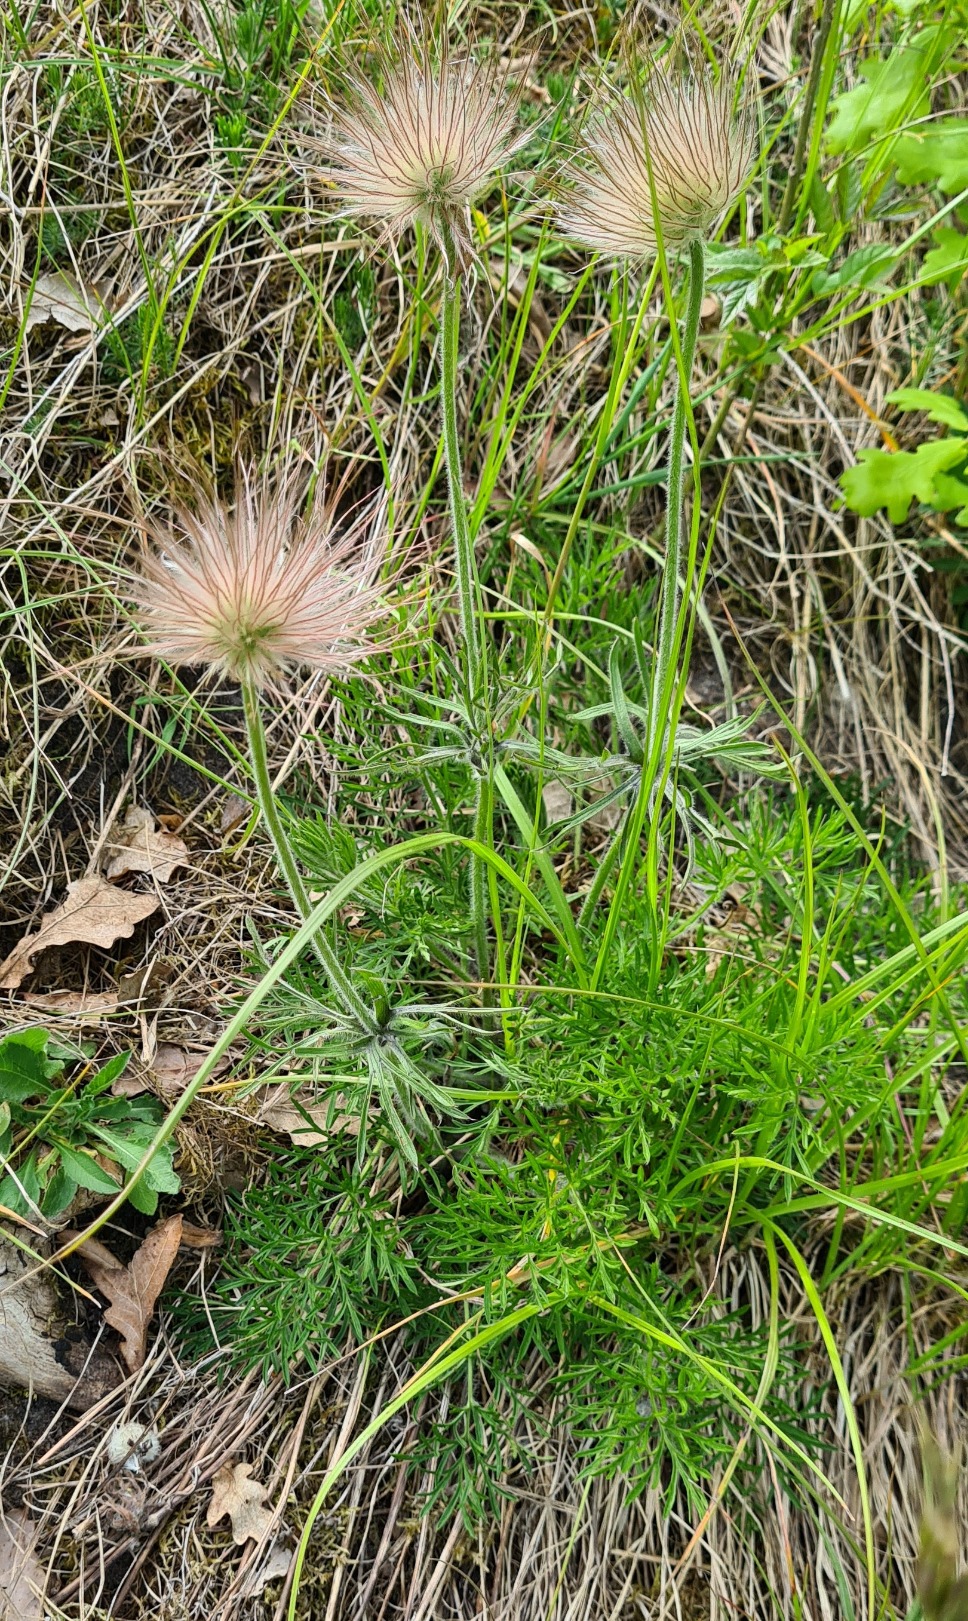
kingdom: Plantae
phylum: Tracheophyta
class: Magnoliopsida
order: Ranunculales
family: Ranunculaceae
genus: Pulsatilla
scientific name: Pulsatilla pratensis
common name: Nikkende kobjælde
